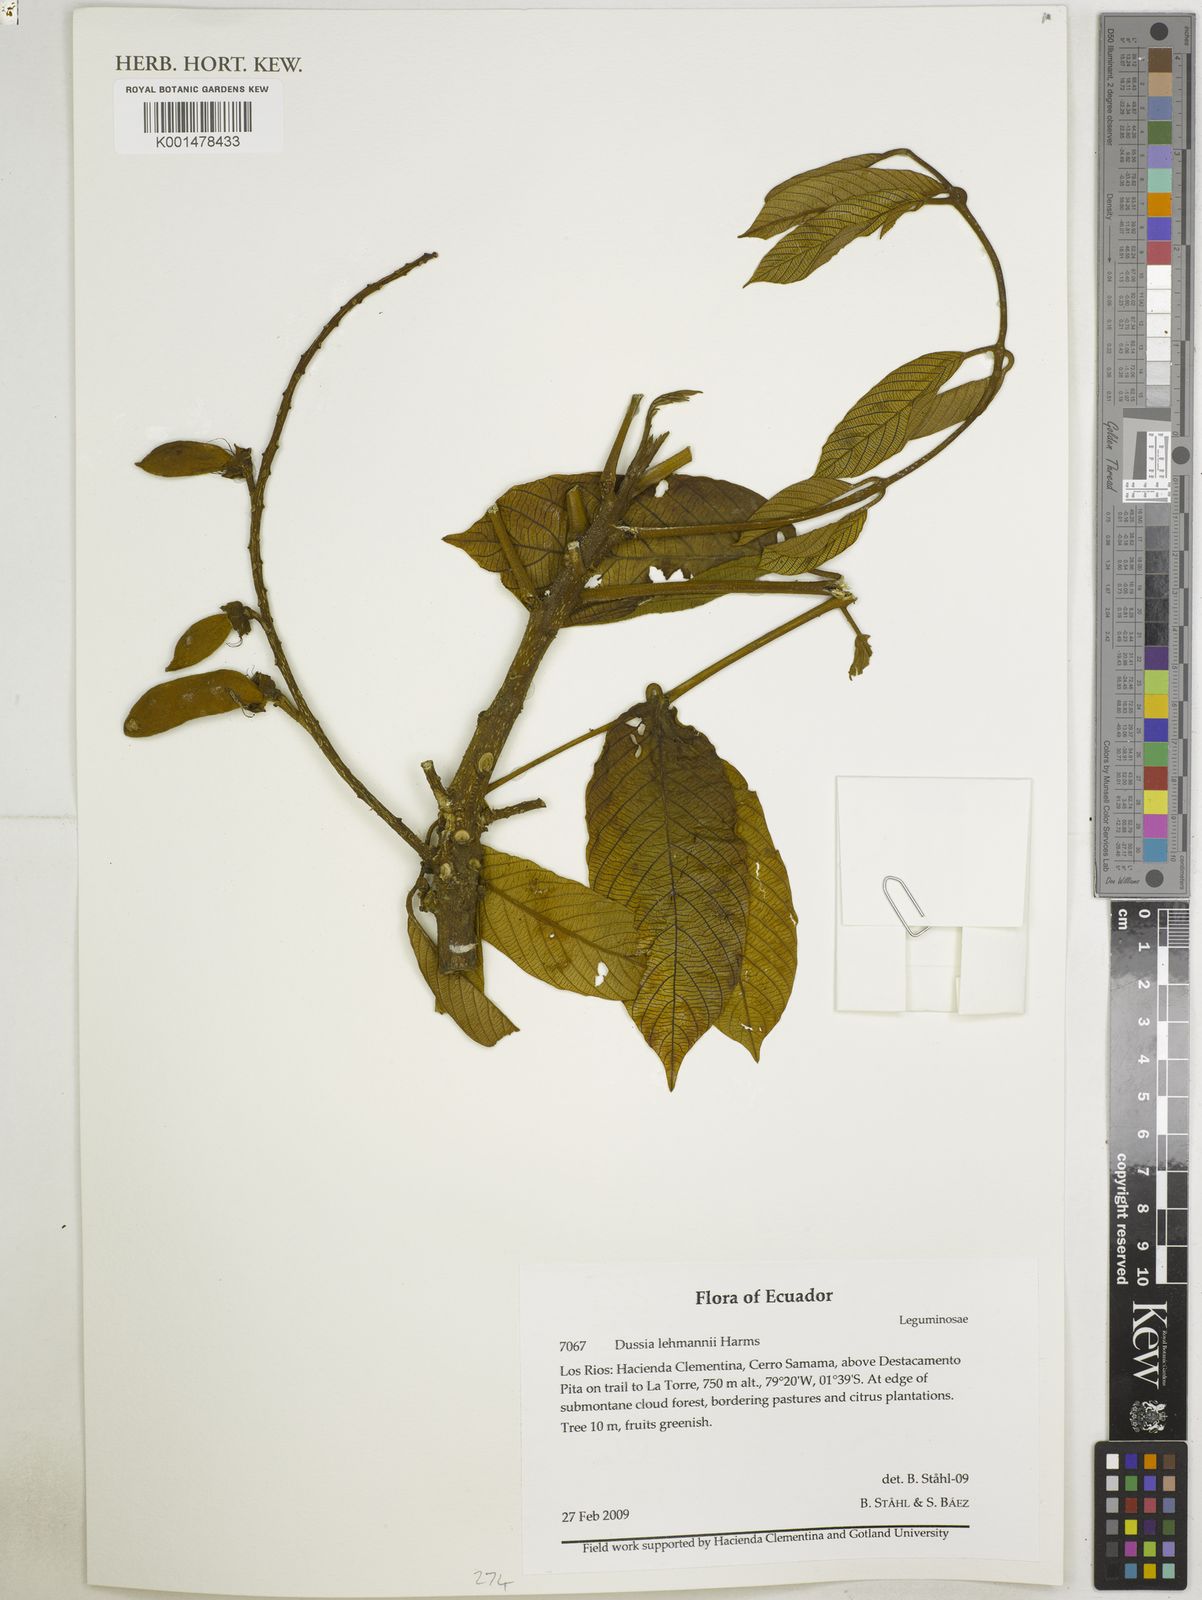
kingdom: Plantae
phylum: Tracheophyta
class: Magnoliopsida
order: Fabales
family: Fabaceae
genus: Dussia
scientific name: Dussia lehmannii
